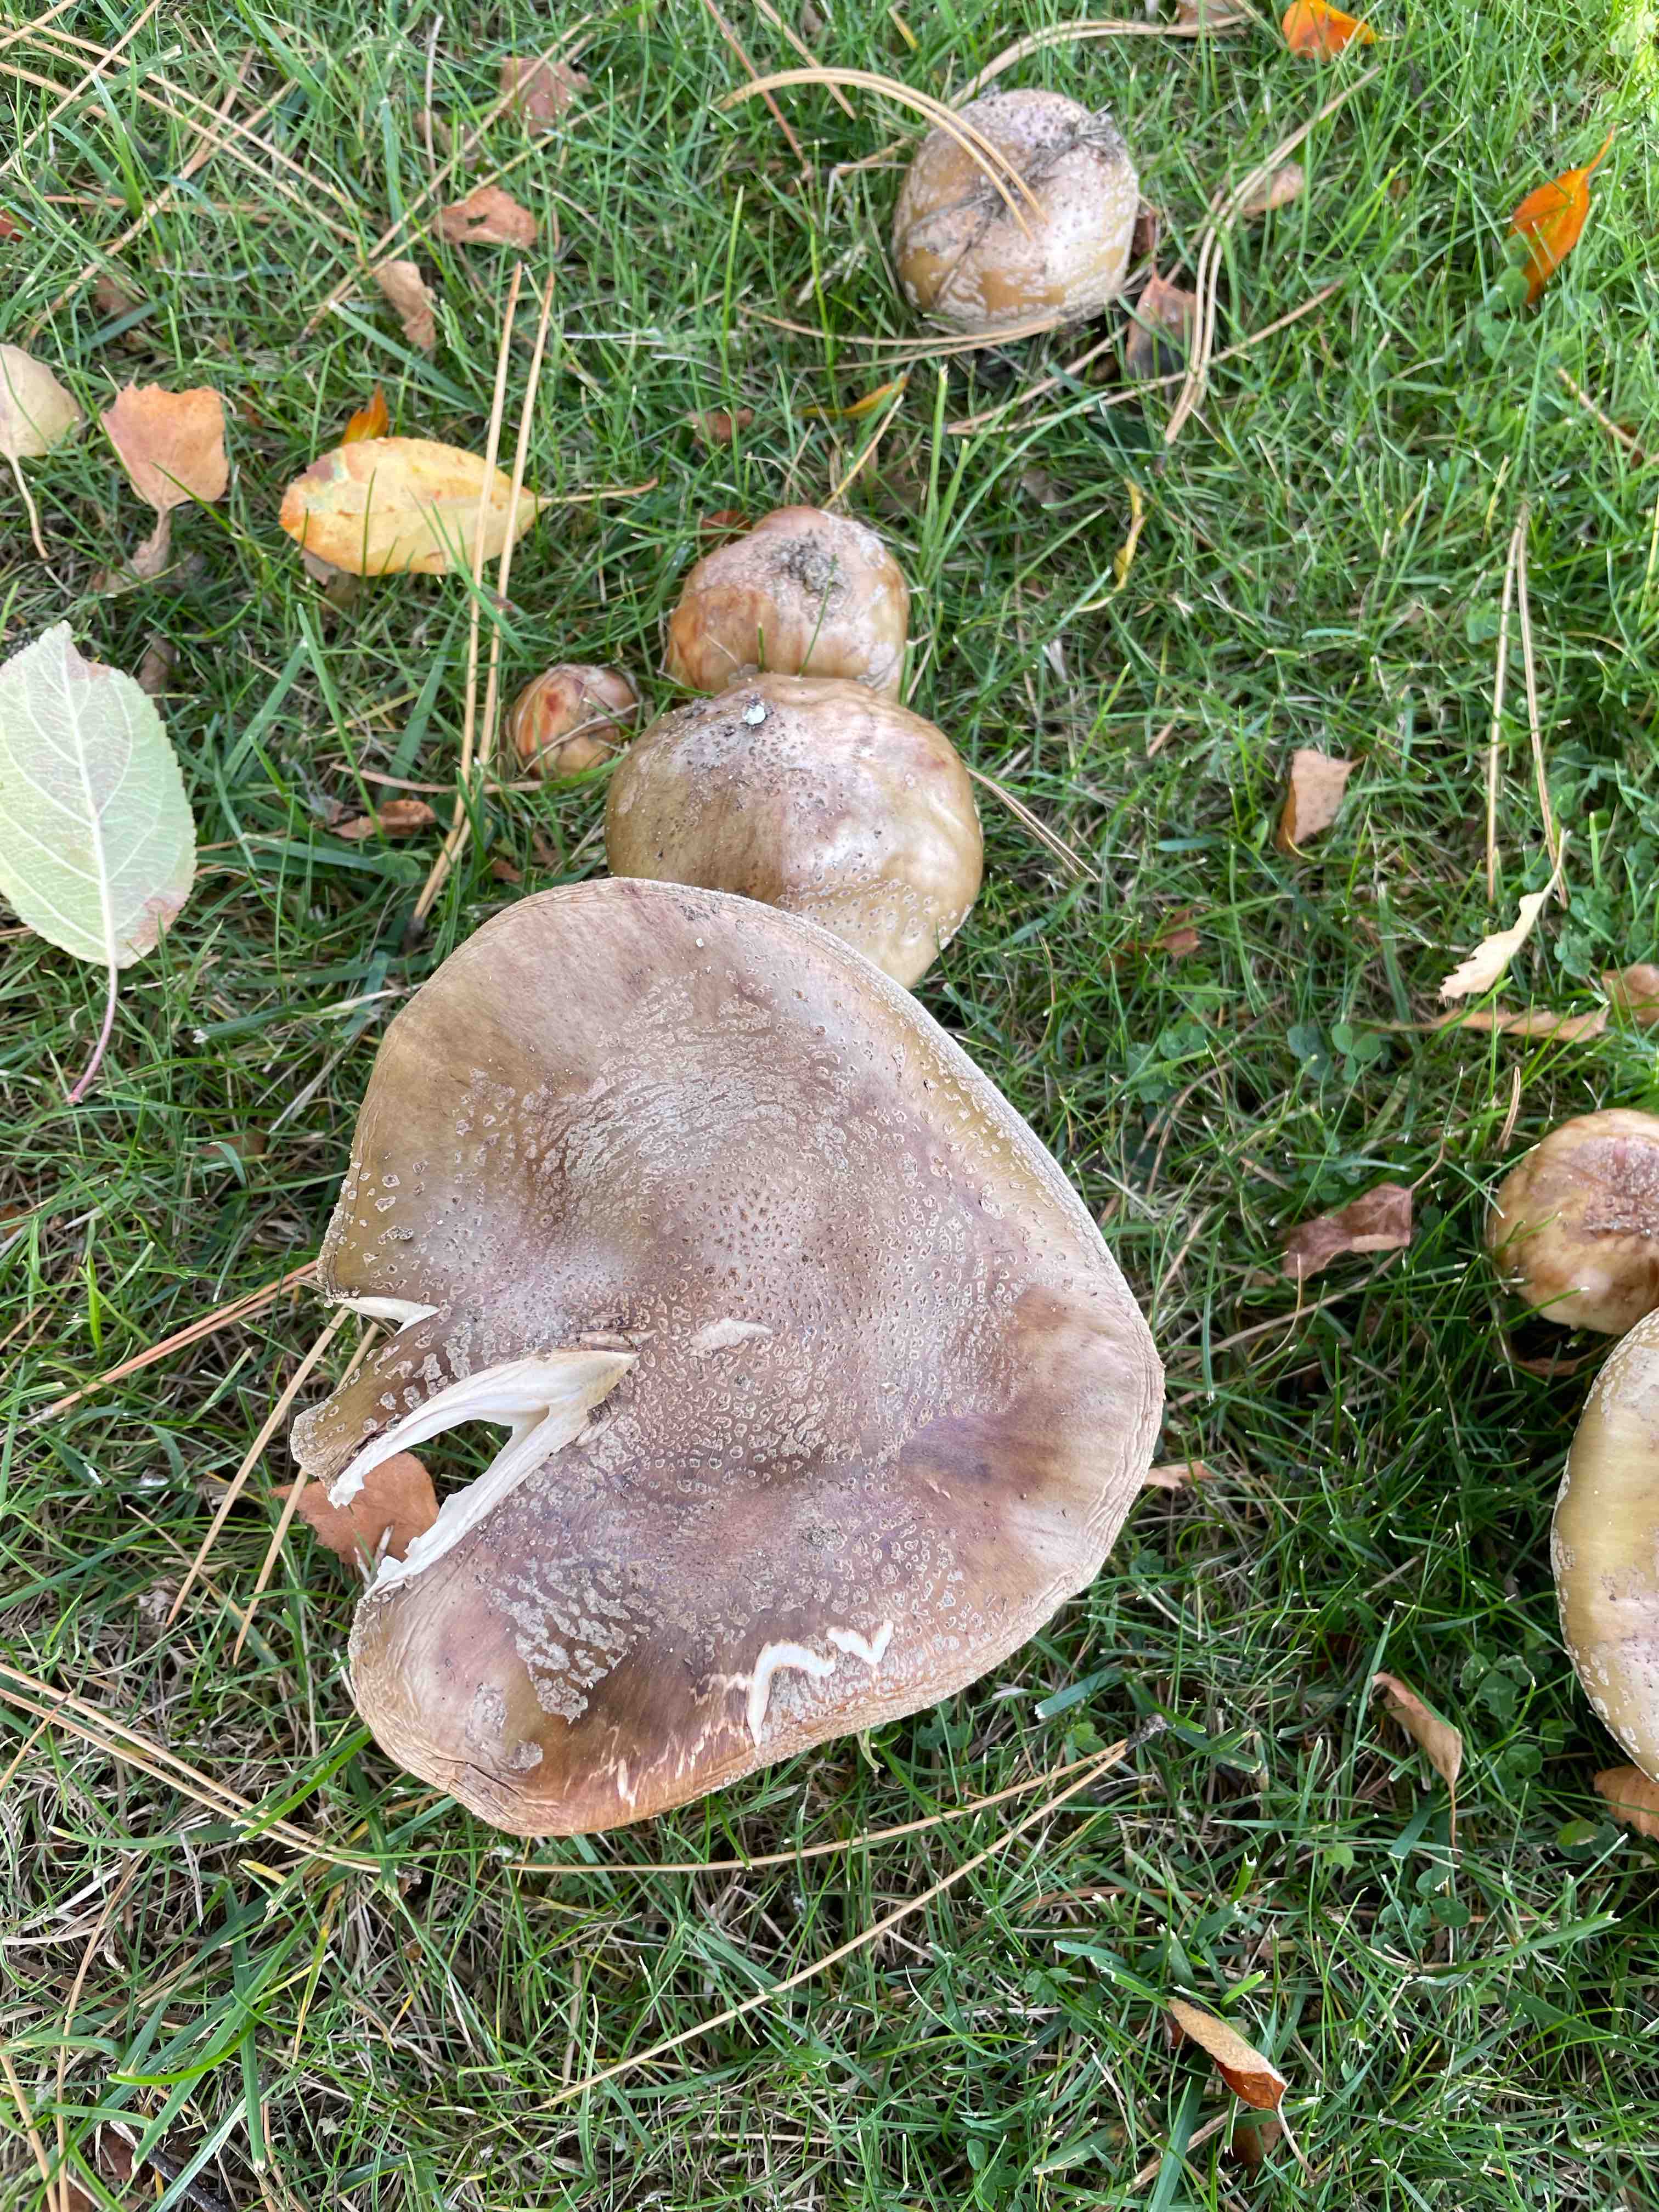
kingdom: Fungi
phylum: Basidiomycota
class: Agaricomycetes
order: Agaricales
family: Amanitaceae
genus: Amanita
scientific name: Amanita rubescens
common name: rødmende fluesvamp
